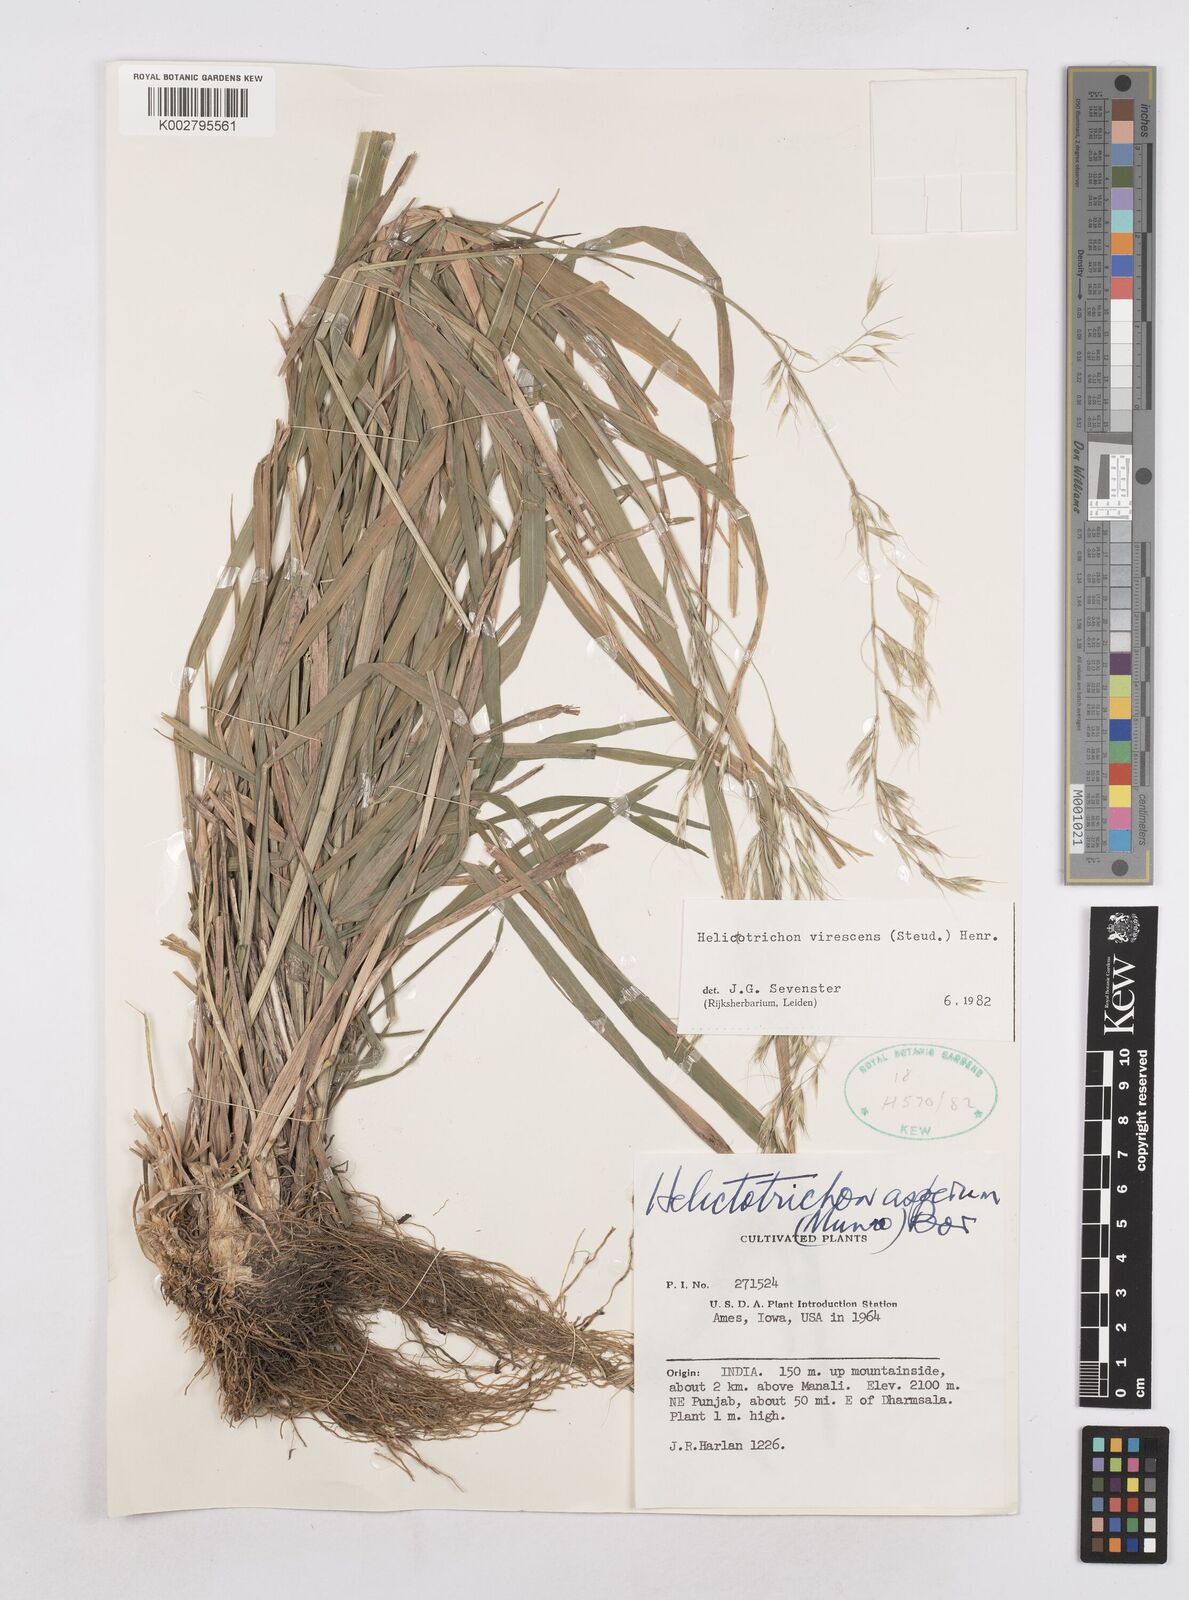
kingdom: Plantae
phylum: Tracheophyta
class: Liliopsida
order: Poales
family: Poaceae
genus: Trisetopsis
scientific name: Trisetopsis junghuhnii
